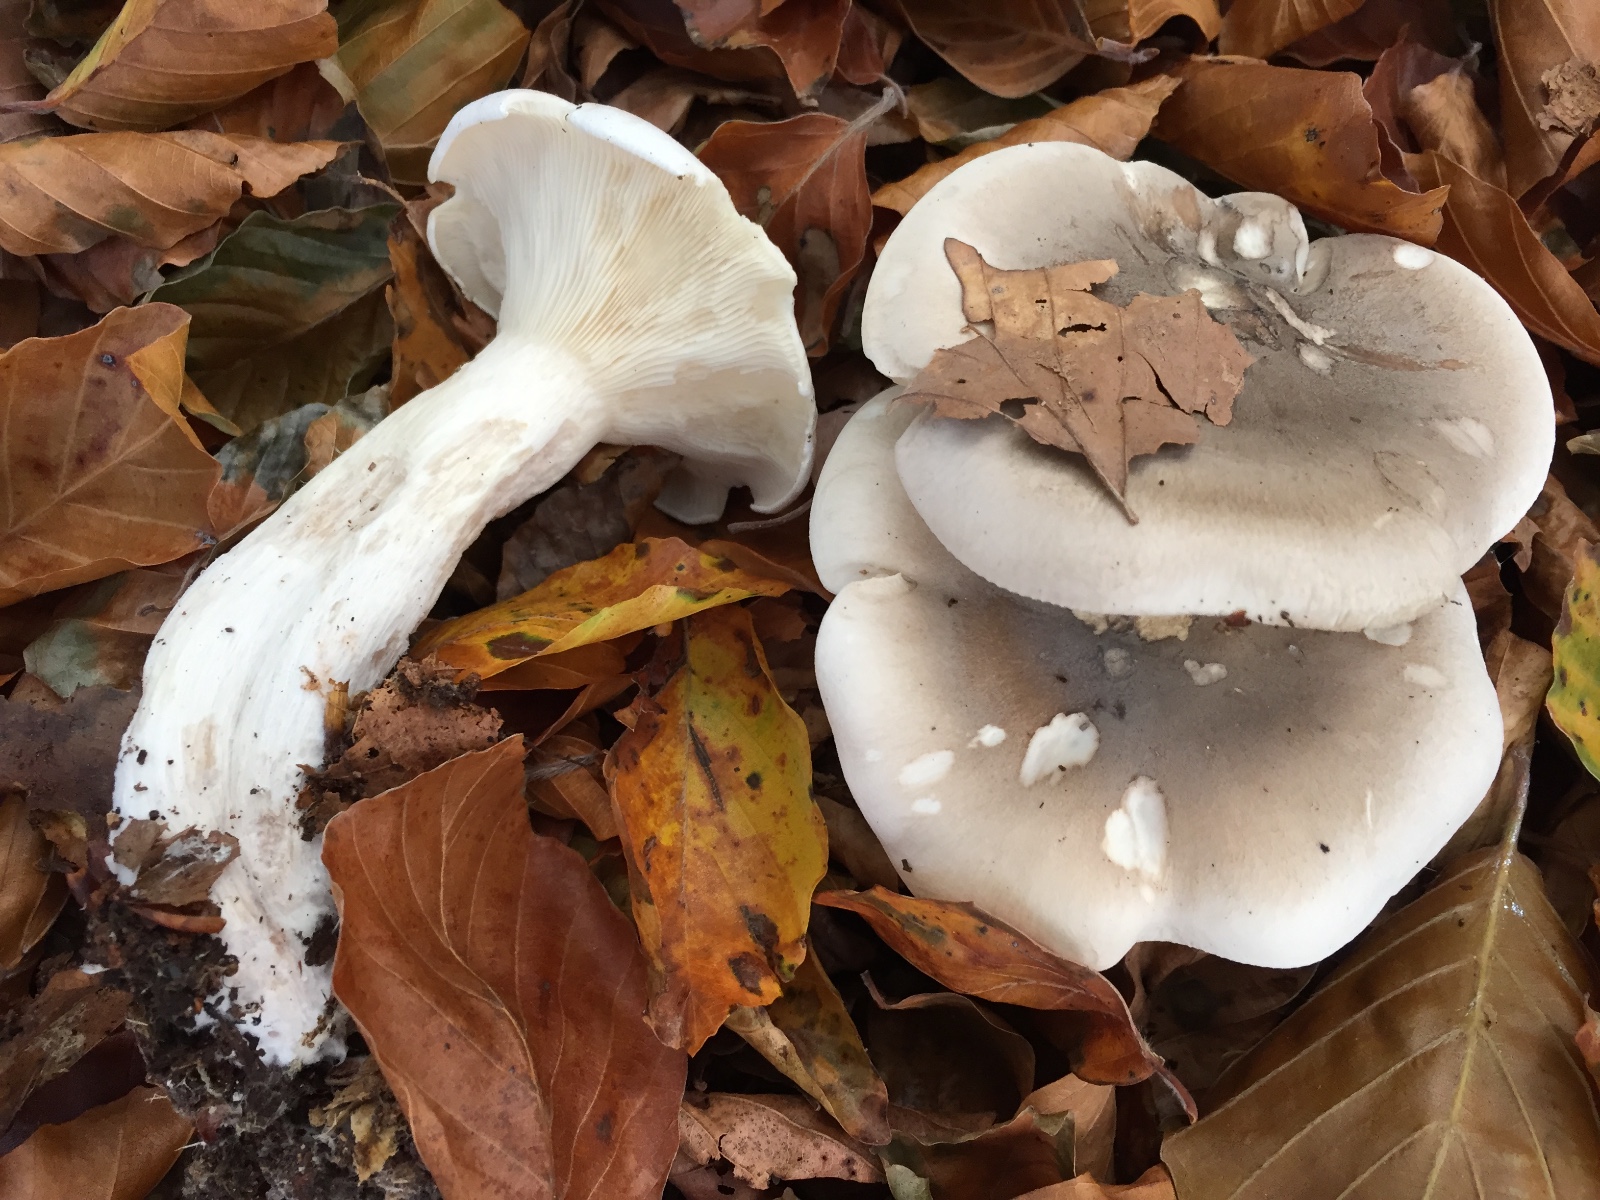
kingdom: Fungi
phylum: Basidiomycota
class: Agaricomycetes
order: Agaricales
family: Tricholomataceae
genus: Clitocybe
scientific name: Clitocybe nebularis
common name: tåge-tragthat
